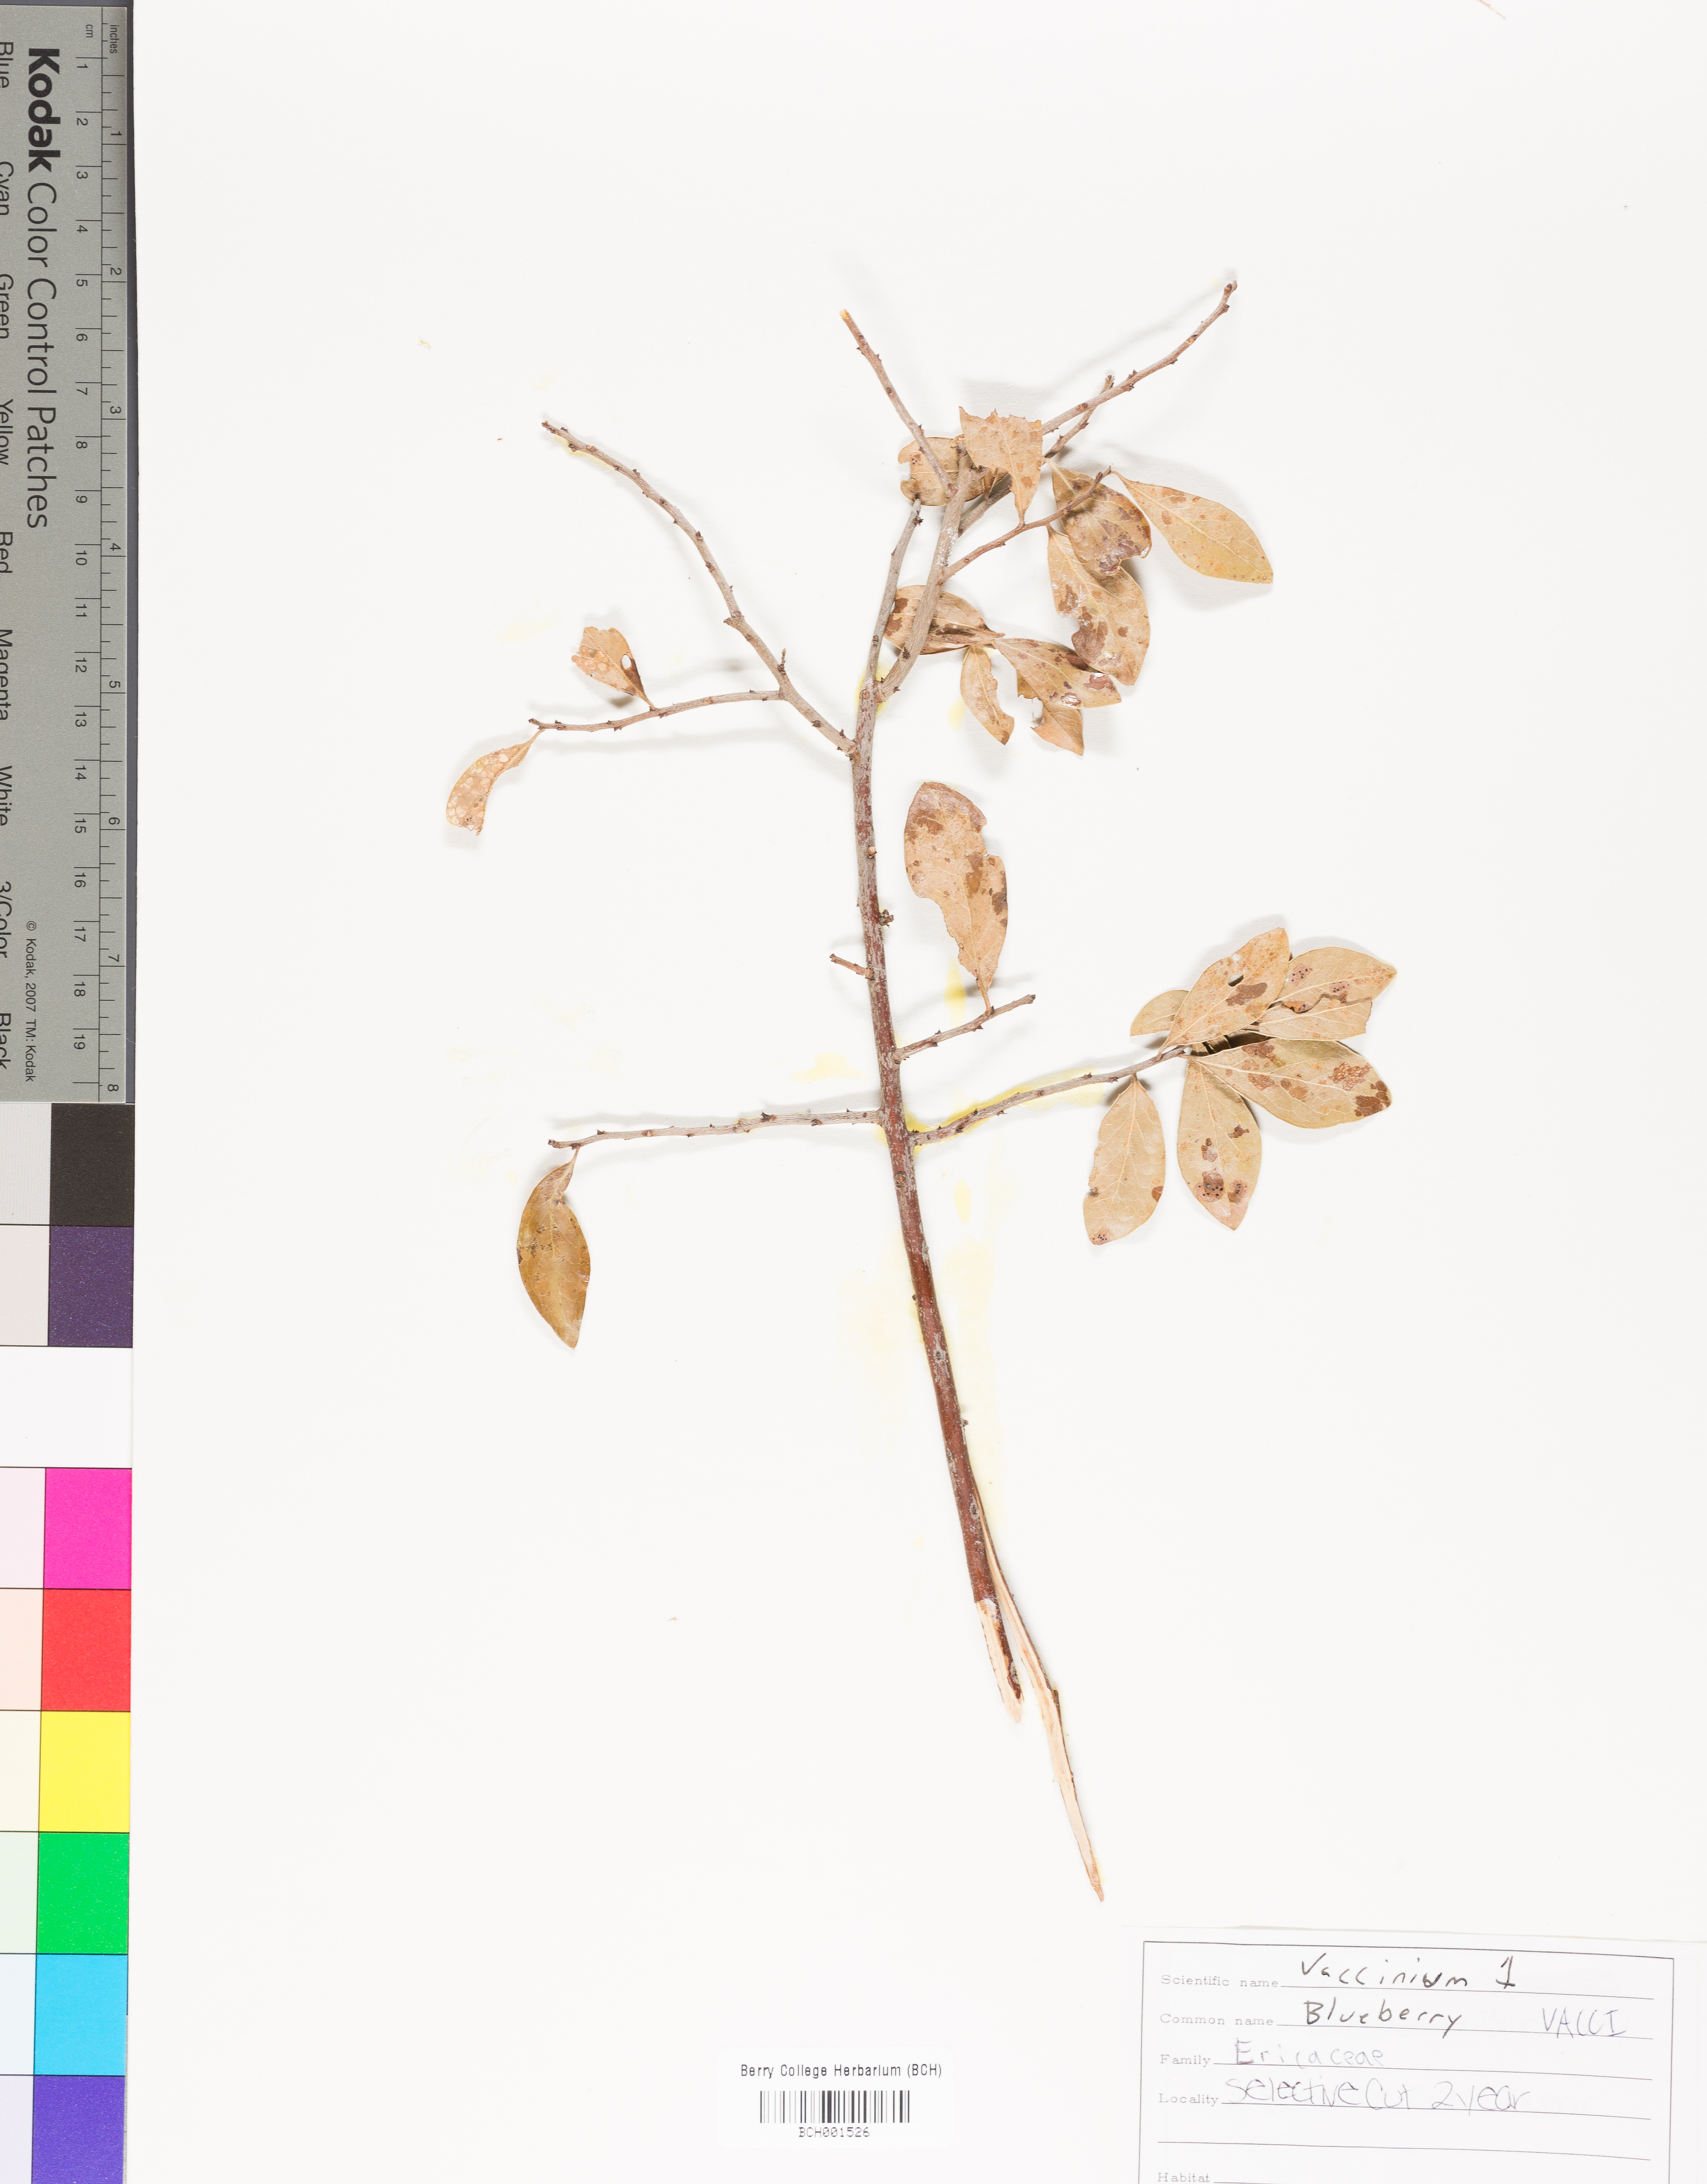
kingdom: Plantae
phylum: Tracheophyta
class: Magnoliopsida
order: Ericales
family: Ericaceae
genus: Vaccinium
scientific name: Vaccinium
